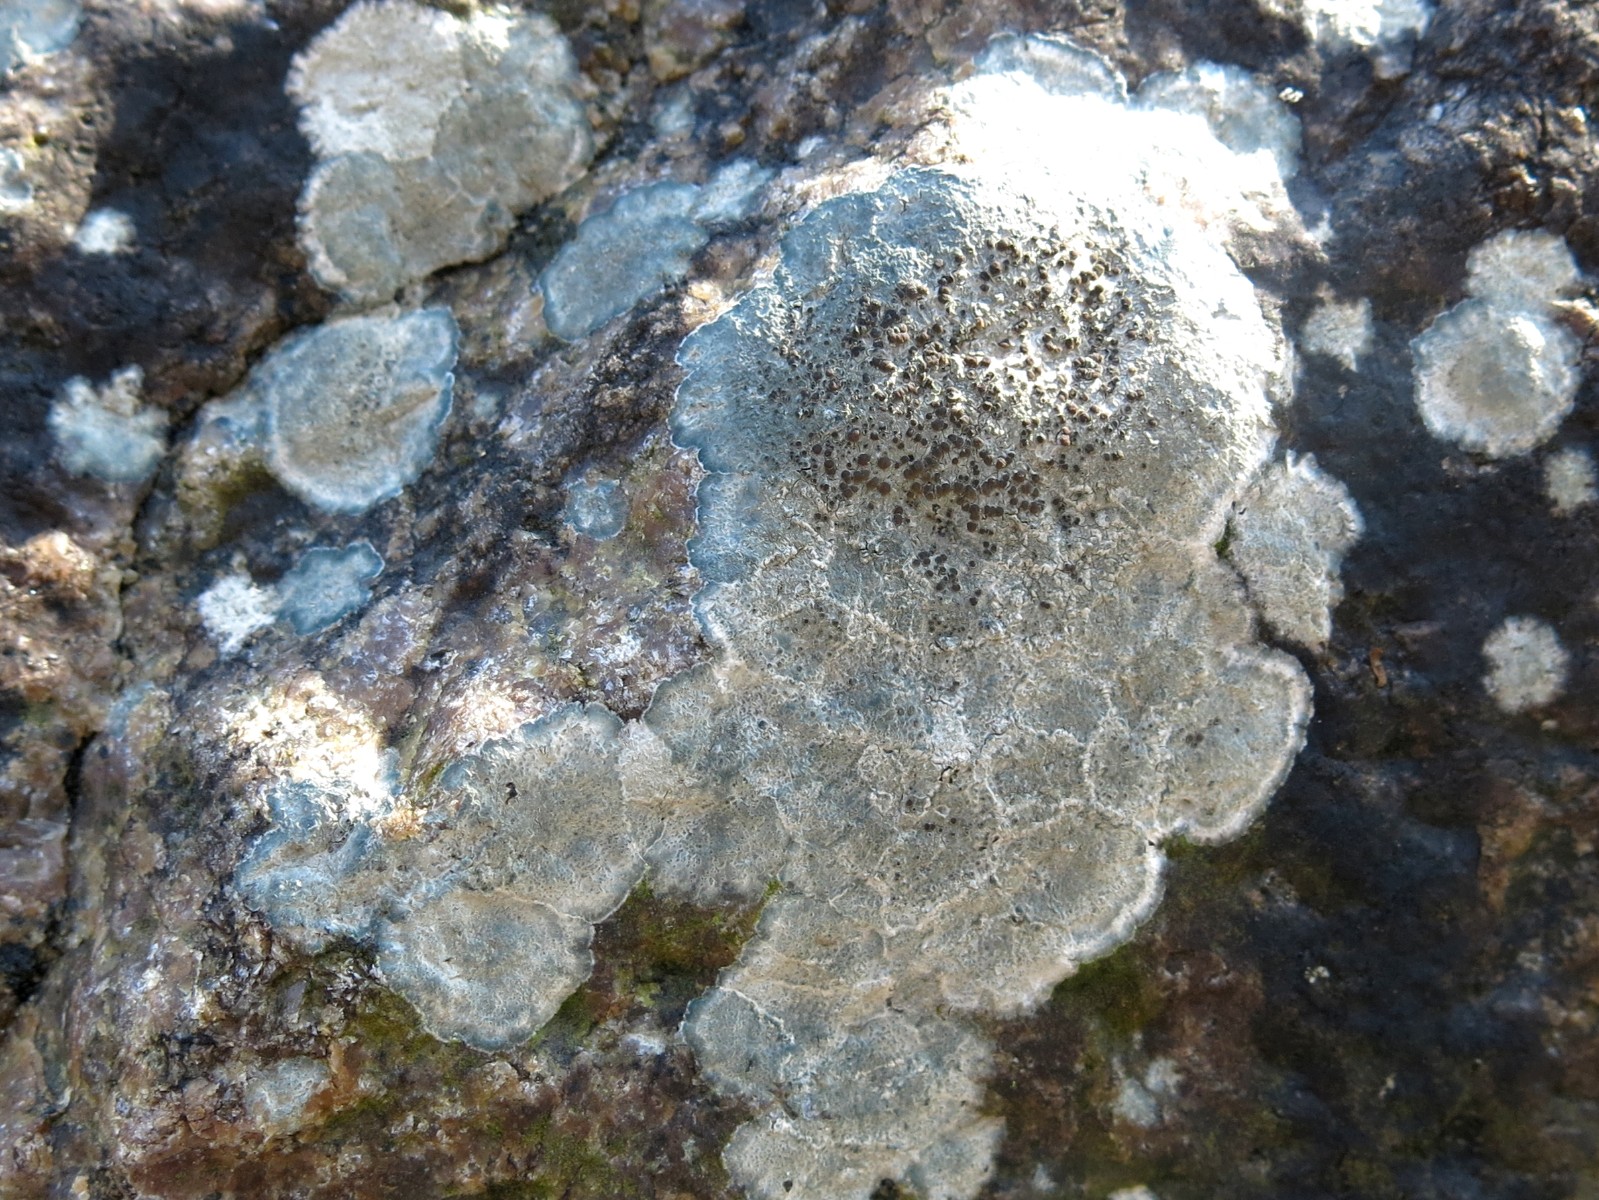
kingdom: Fungi
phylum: Ascomycota
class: Lecanoromycetes
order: Lecanorales
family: Lecanoraceae
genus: Lecanora
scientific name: Lecanora
